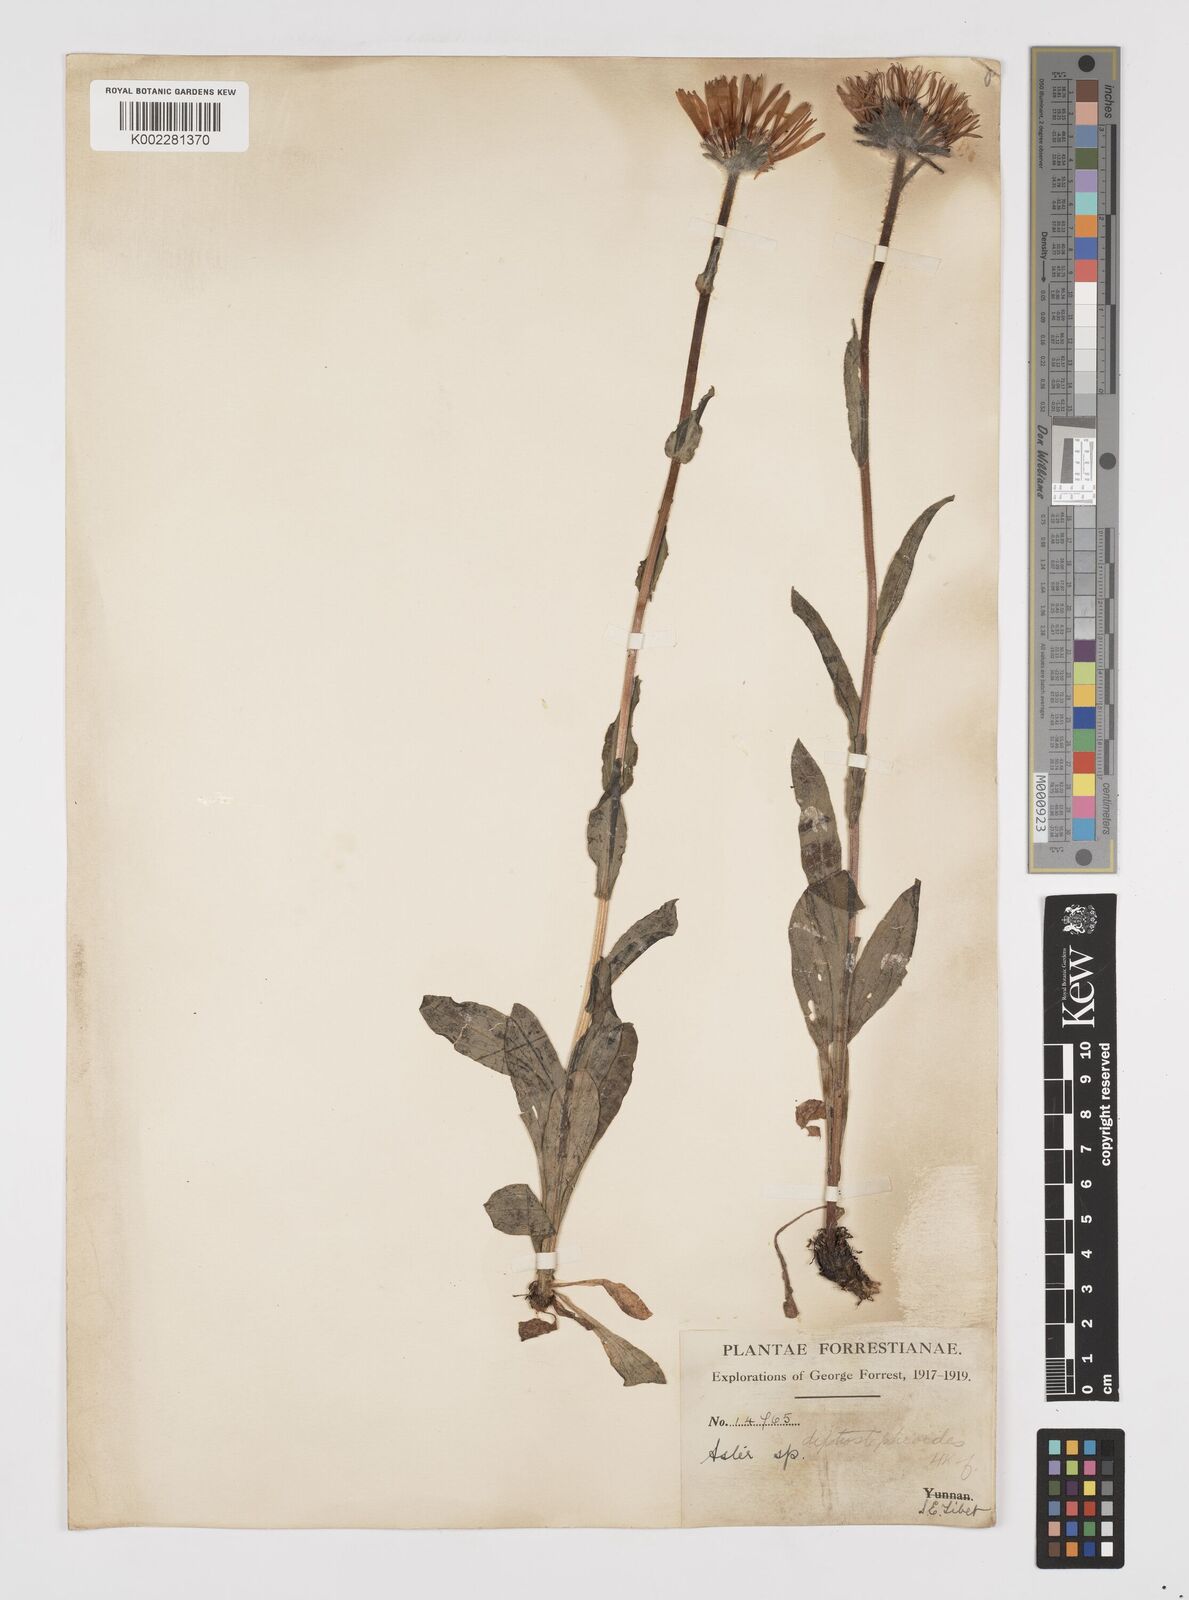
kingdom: Plantae
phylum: Tracheophyta
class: Magnoliopsida
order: Asterales
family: Asteraceae
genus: Tibetiodes
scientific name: Tibetiodes diplostephioides
